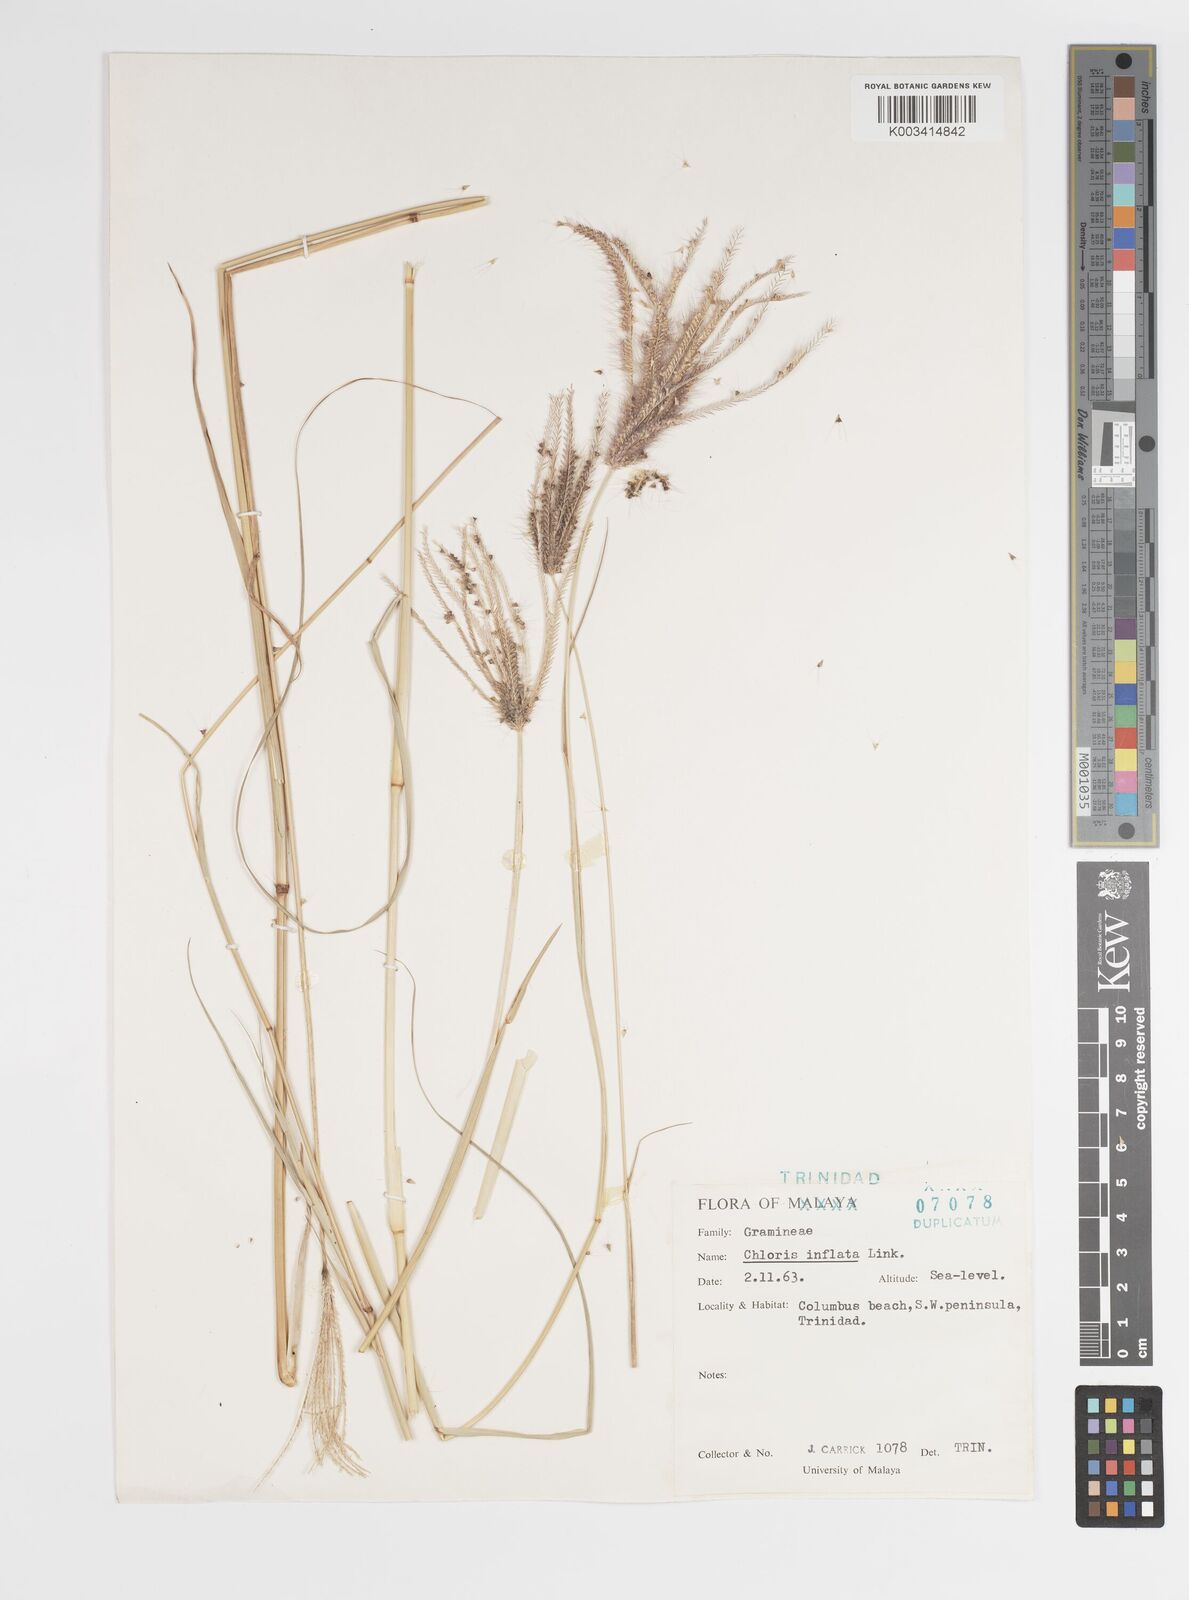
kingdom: Plantae
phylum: Tracheophyta
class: Liliopsida
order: Poales
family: Poaceae
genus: Chloris
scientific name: Chloris barbata
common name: Swollen fingergrass
